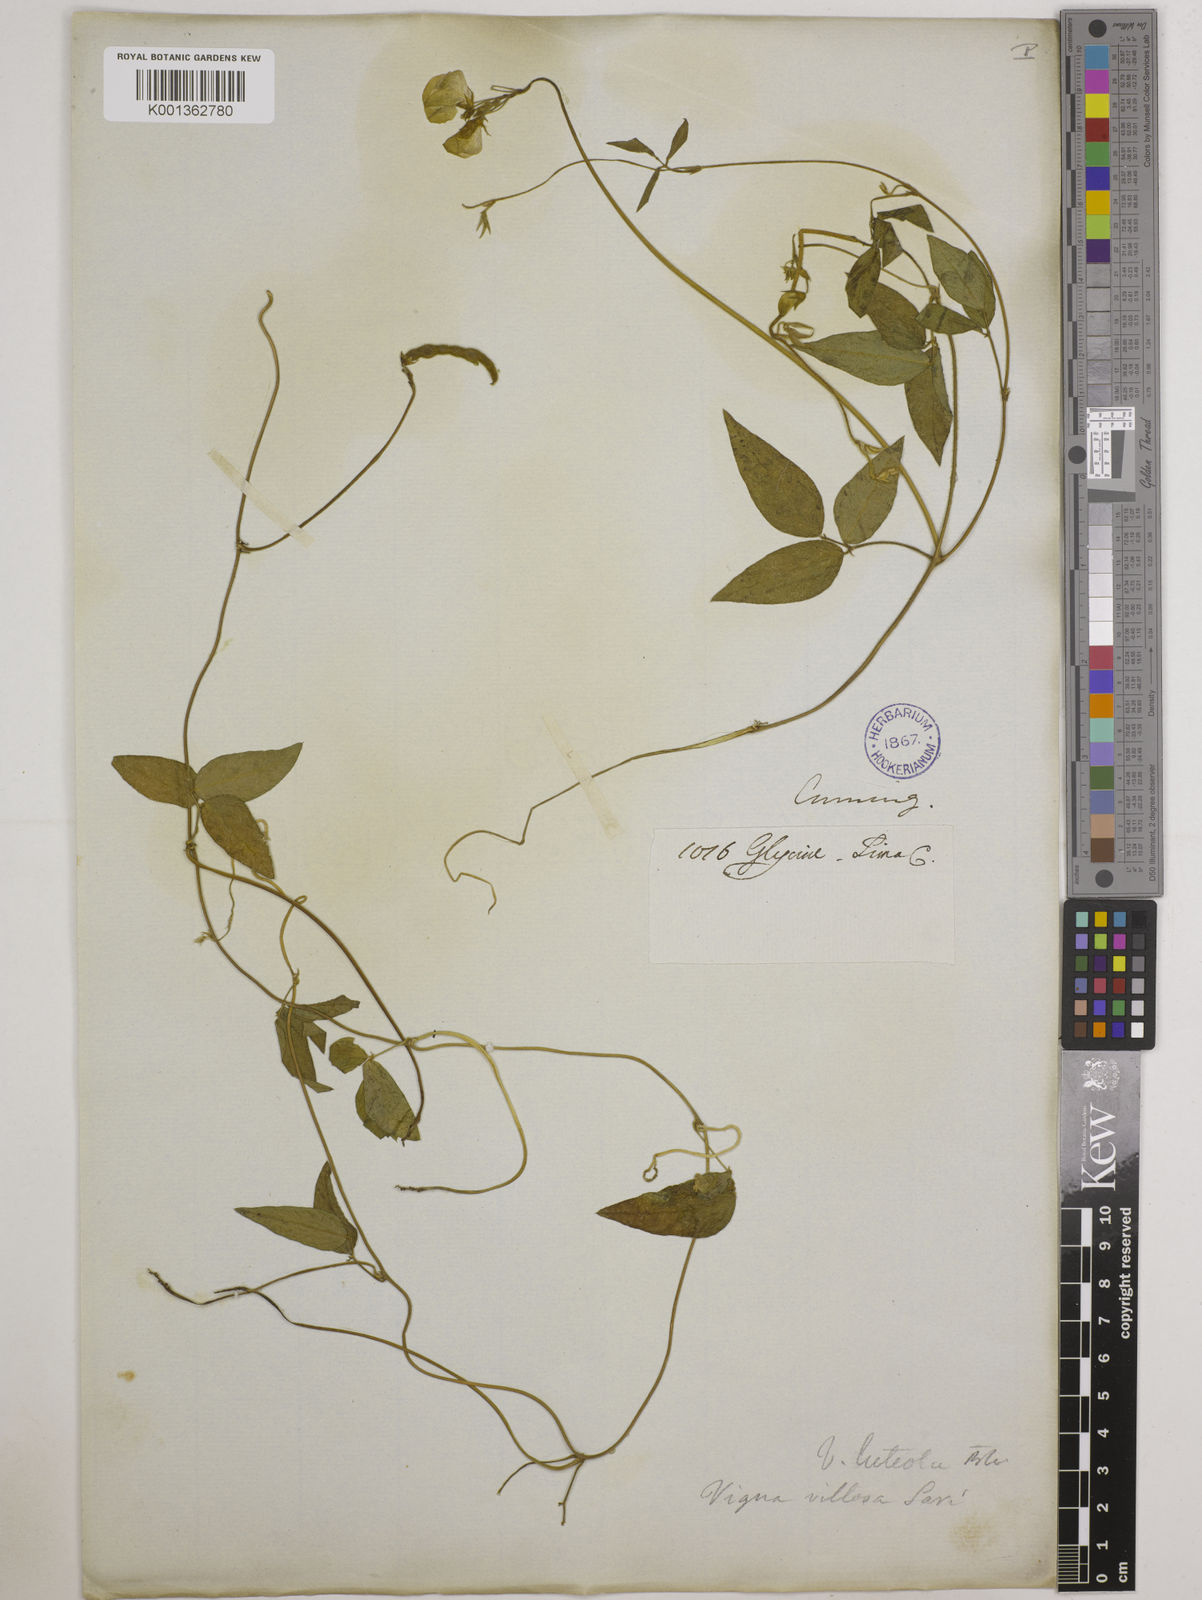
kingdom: Plantae
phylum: Tracheophyta
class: Magnoliopsida
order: Fabales
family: Fabaceae
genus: Vigna
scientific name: Vigna luteola
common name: Hairypod cowpea
